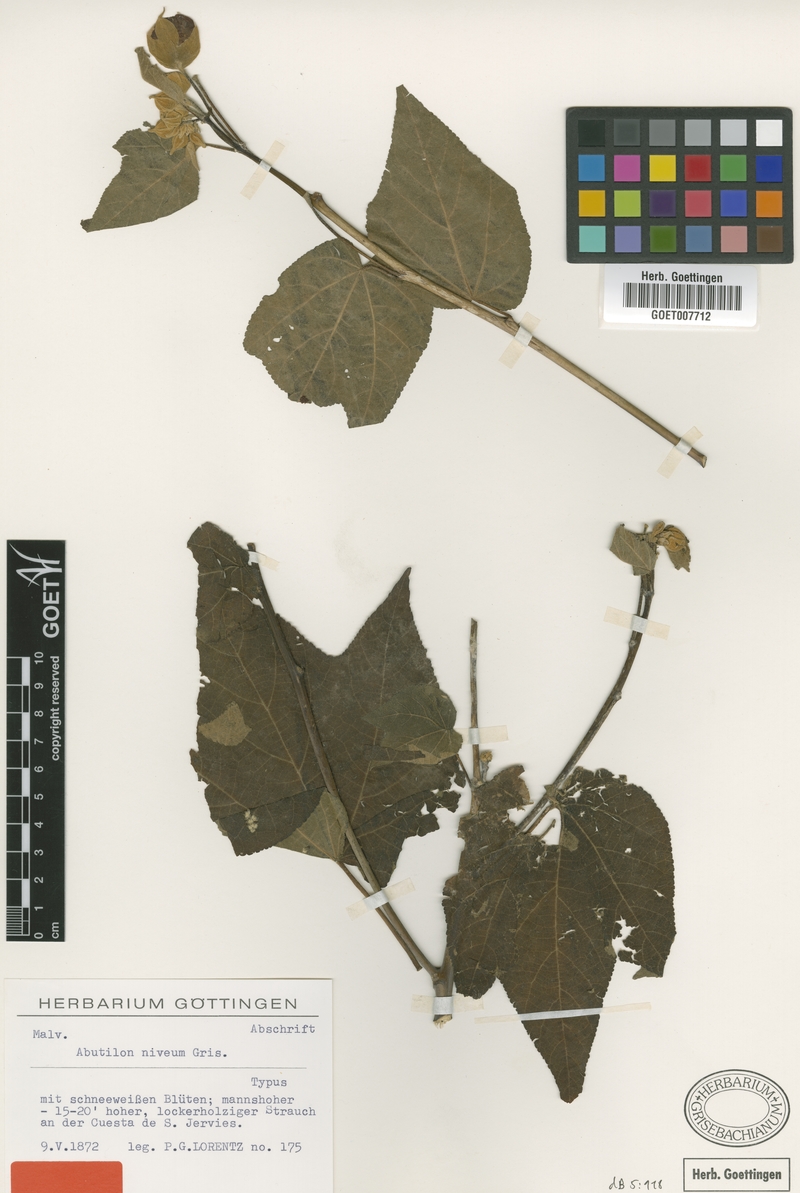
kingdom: Plantae
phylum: Tracheophyta
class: Magnoliopsida
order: Malvales
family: Malvaceae
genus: Callianthe
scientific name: Callianthe nivea
